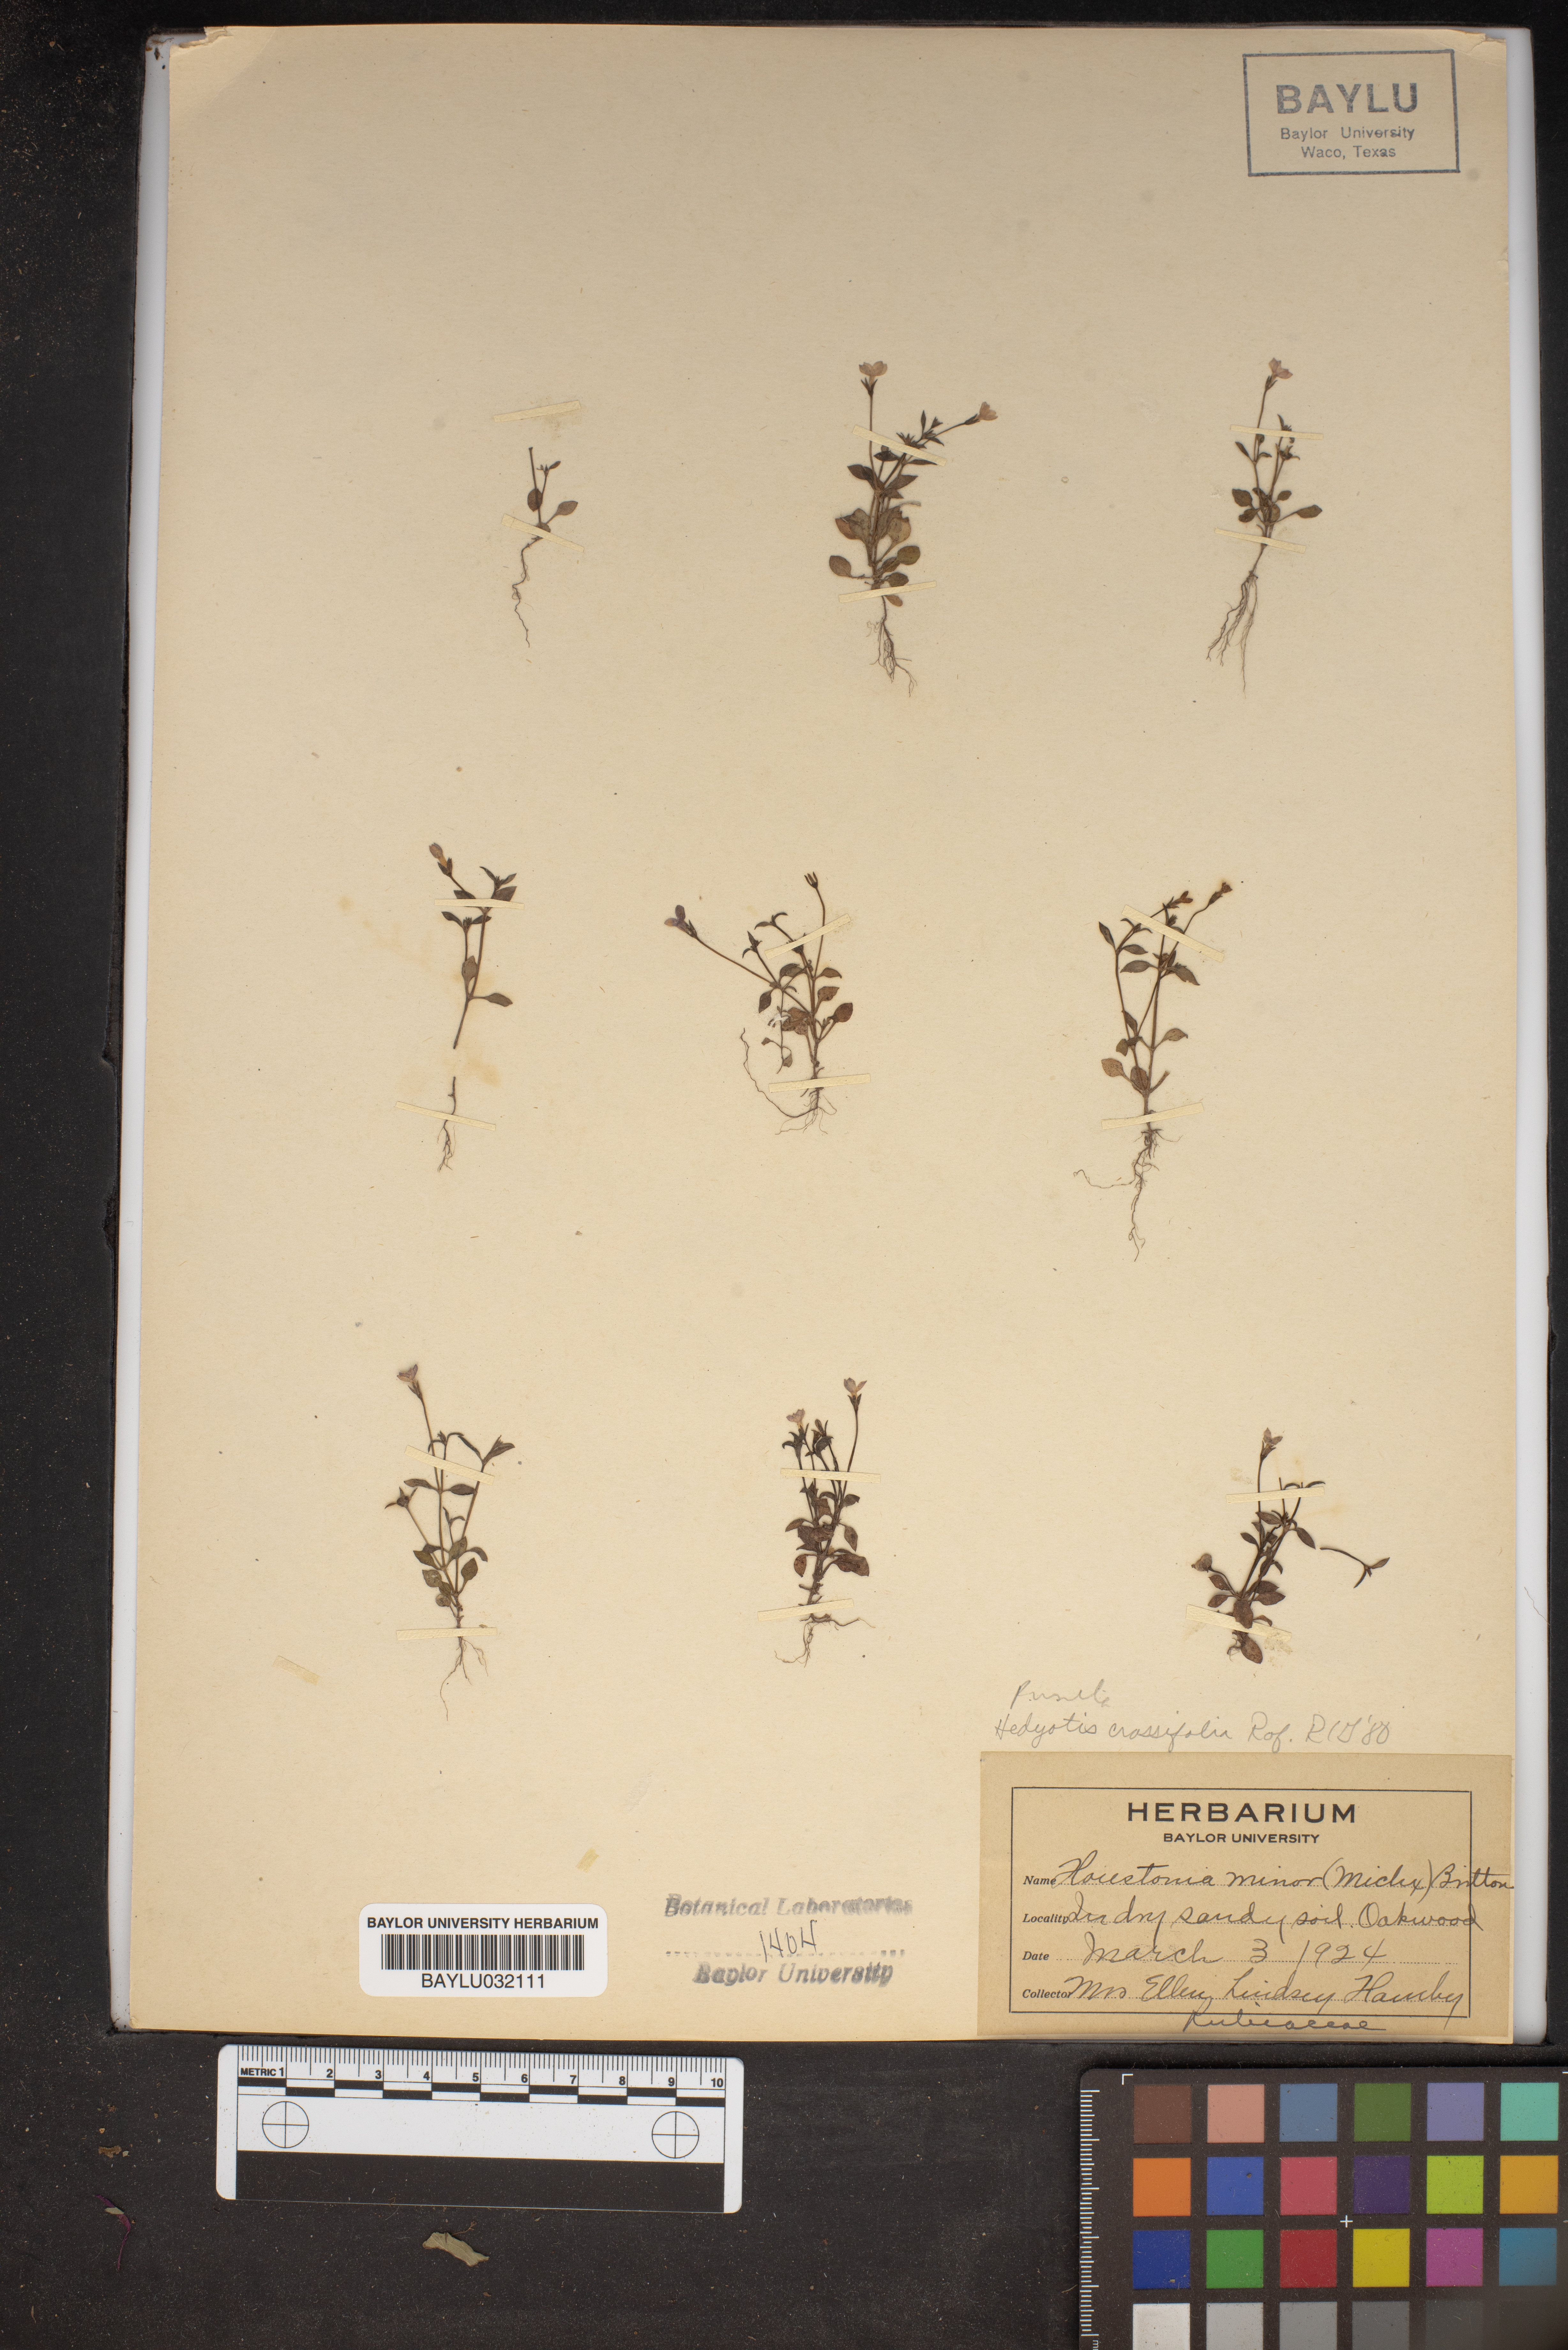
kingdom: Plantae
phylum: Tracheophyta
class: Magnoliopsida
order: Gentianales
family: Rubiaceae
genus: Houstonia
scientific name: Houstonia pusilla
